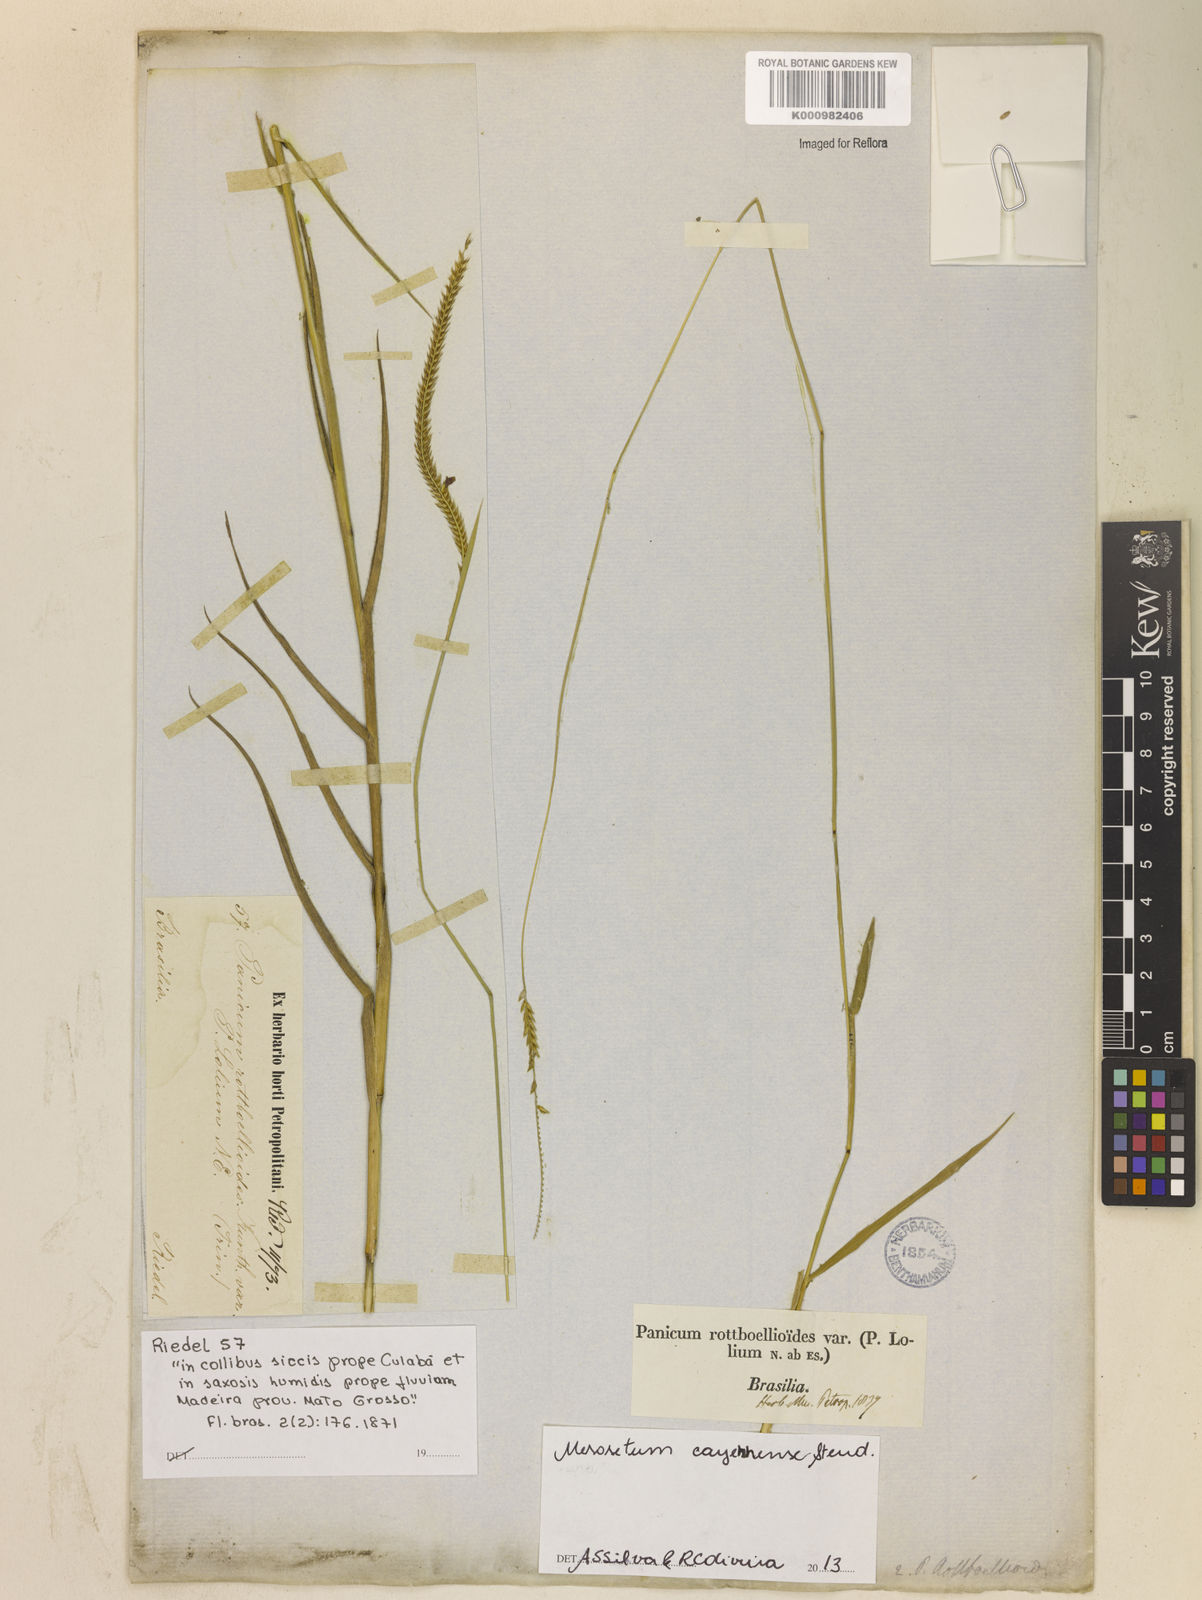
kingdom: Plantae
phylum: Tracheophyta
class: Liliopsida
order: Poales
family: Poaceae
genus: Mesosetum
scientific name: Mesosetum cayennense
